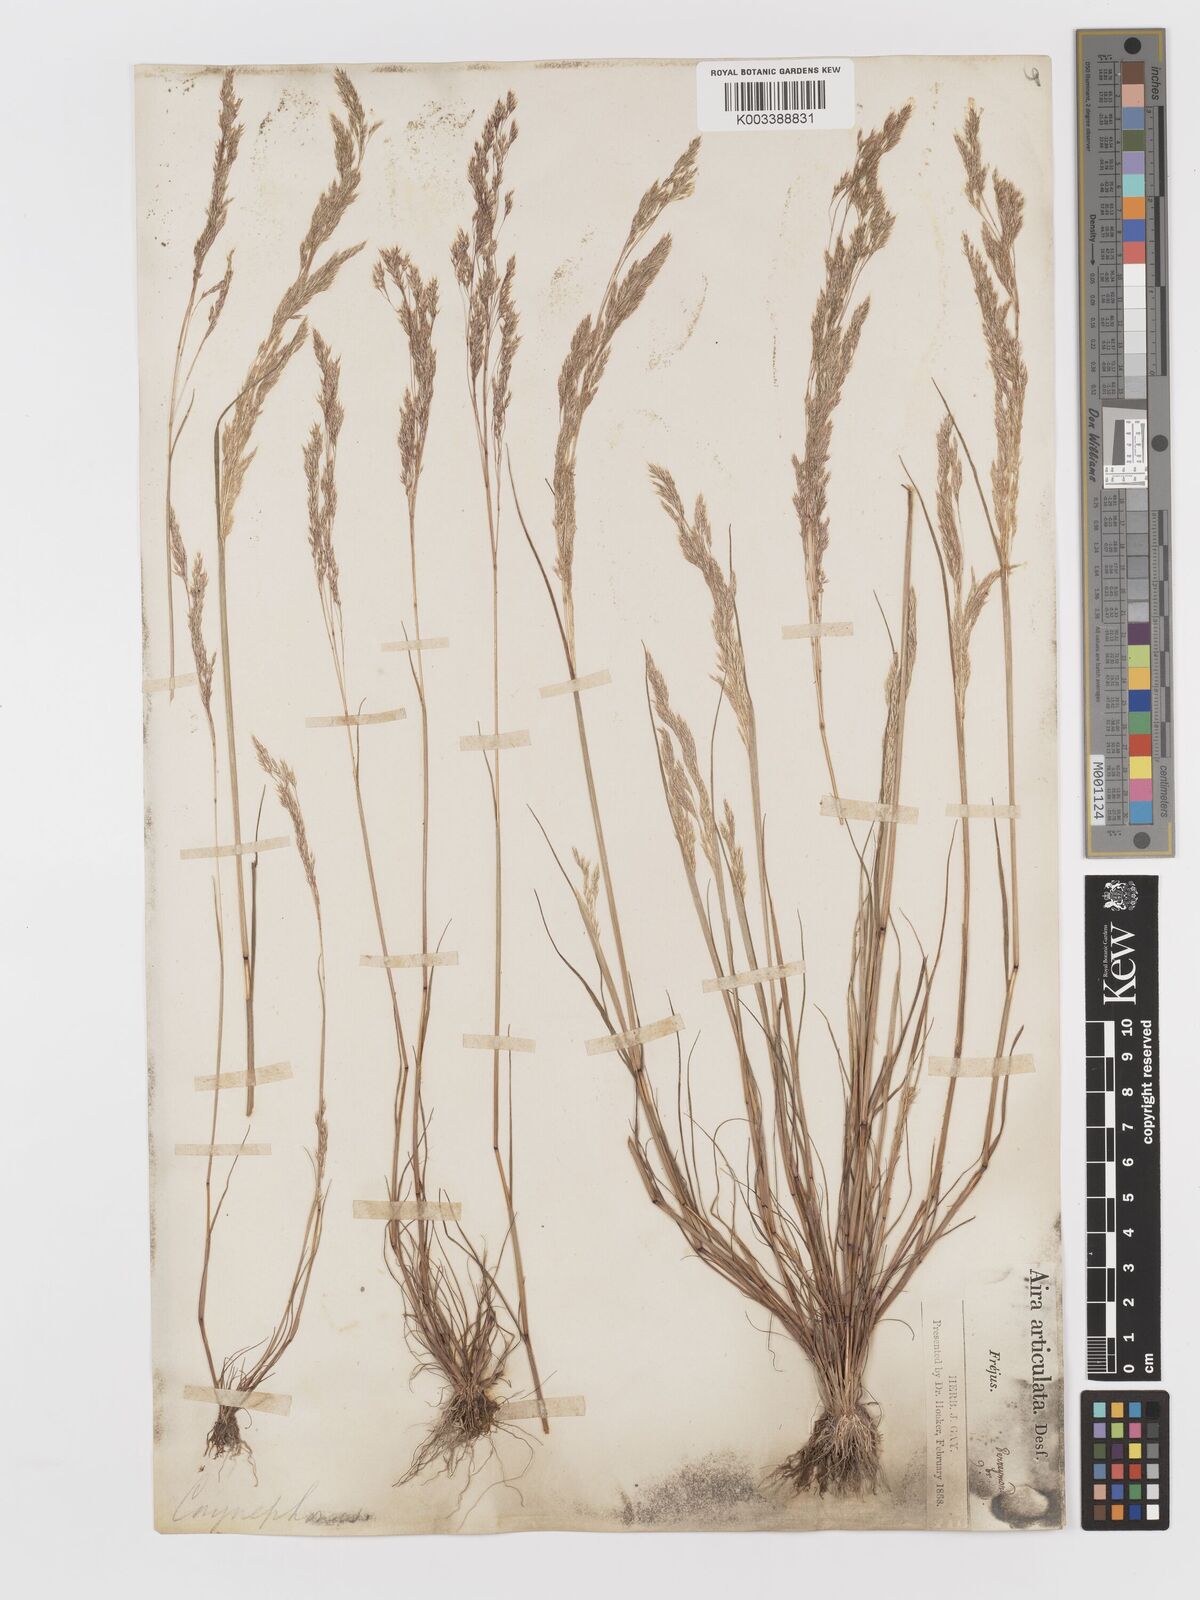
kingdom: Plantae
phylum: Tracheophyta
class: Liliopsida
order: Poales
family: Poaceae
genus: Corynephorus
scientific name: Corynephorus divaricatus
